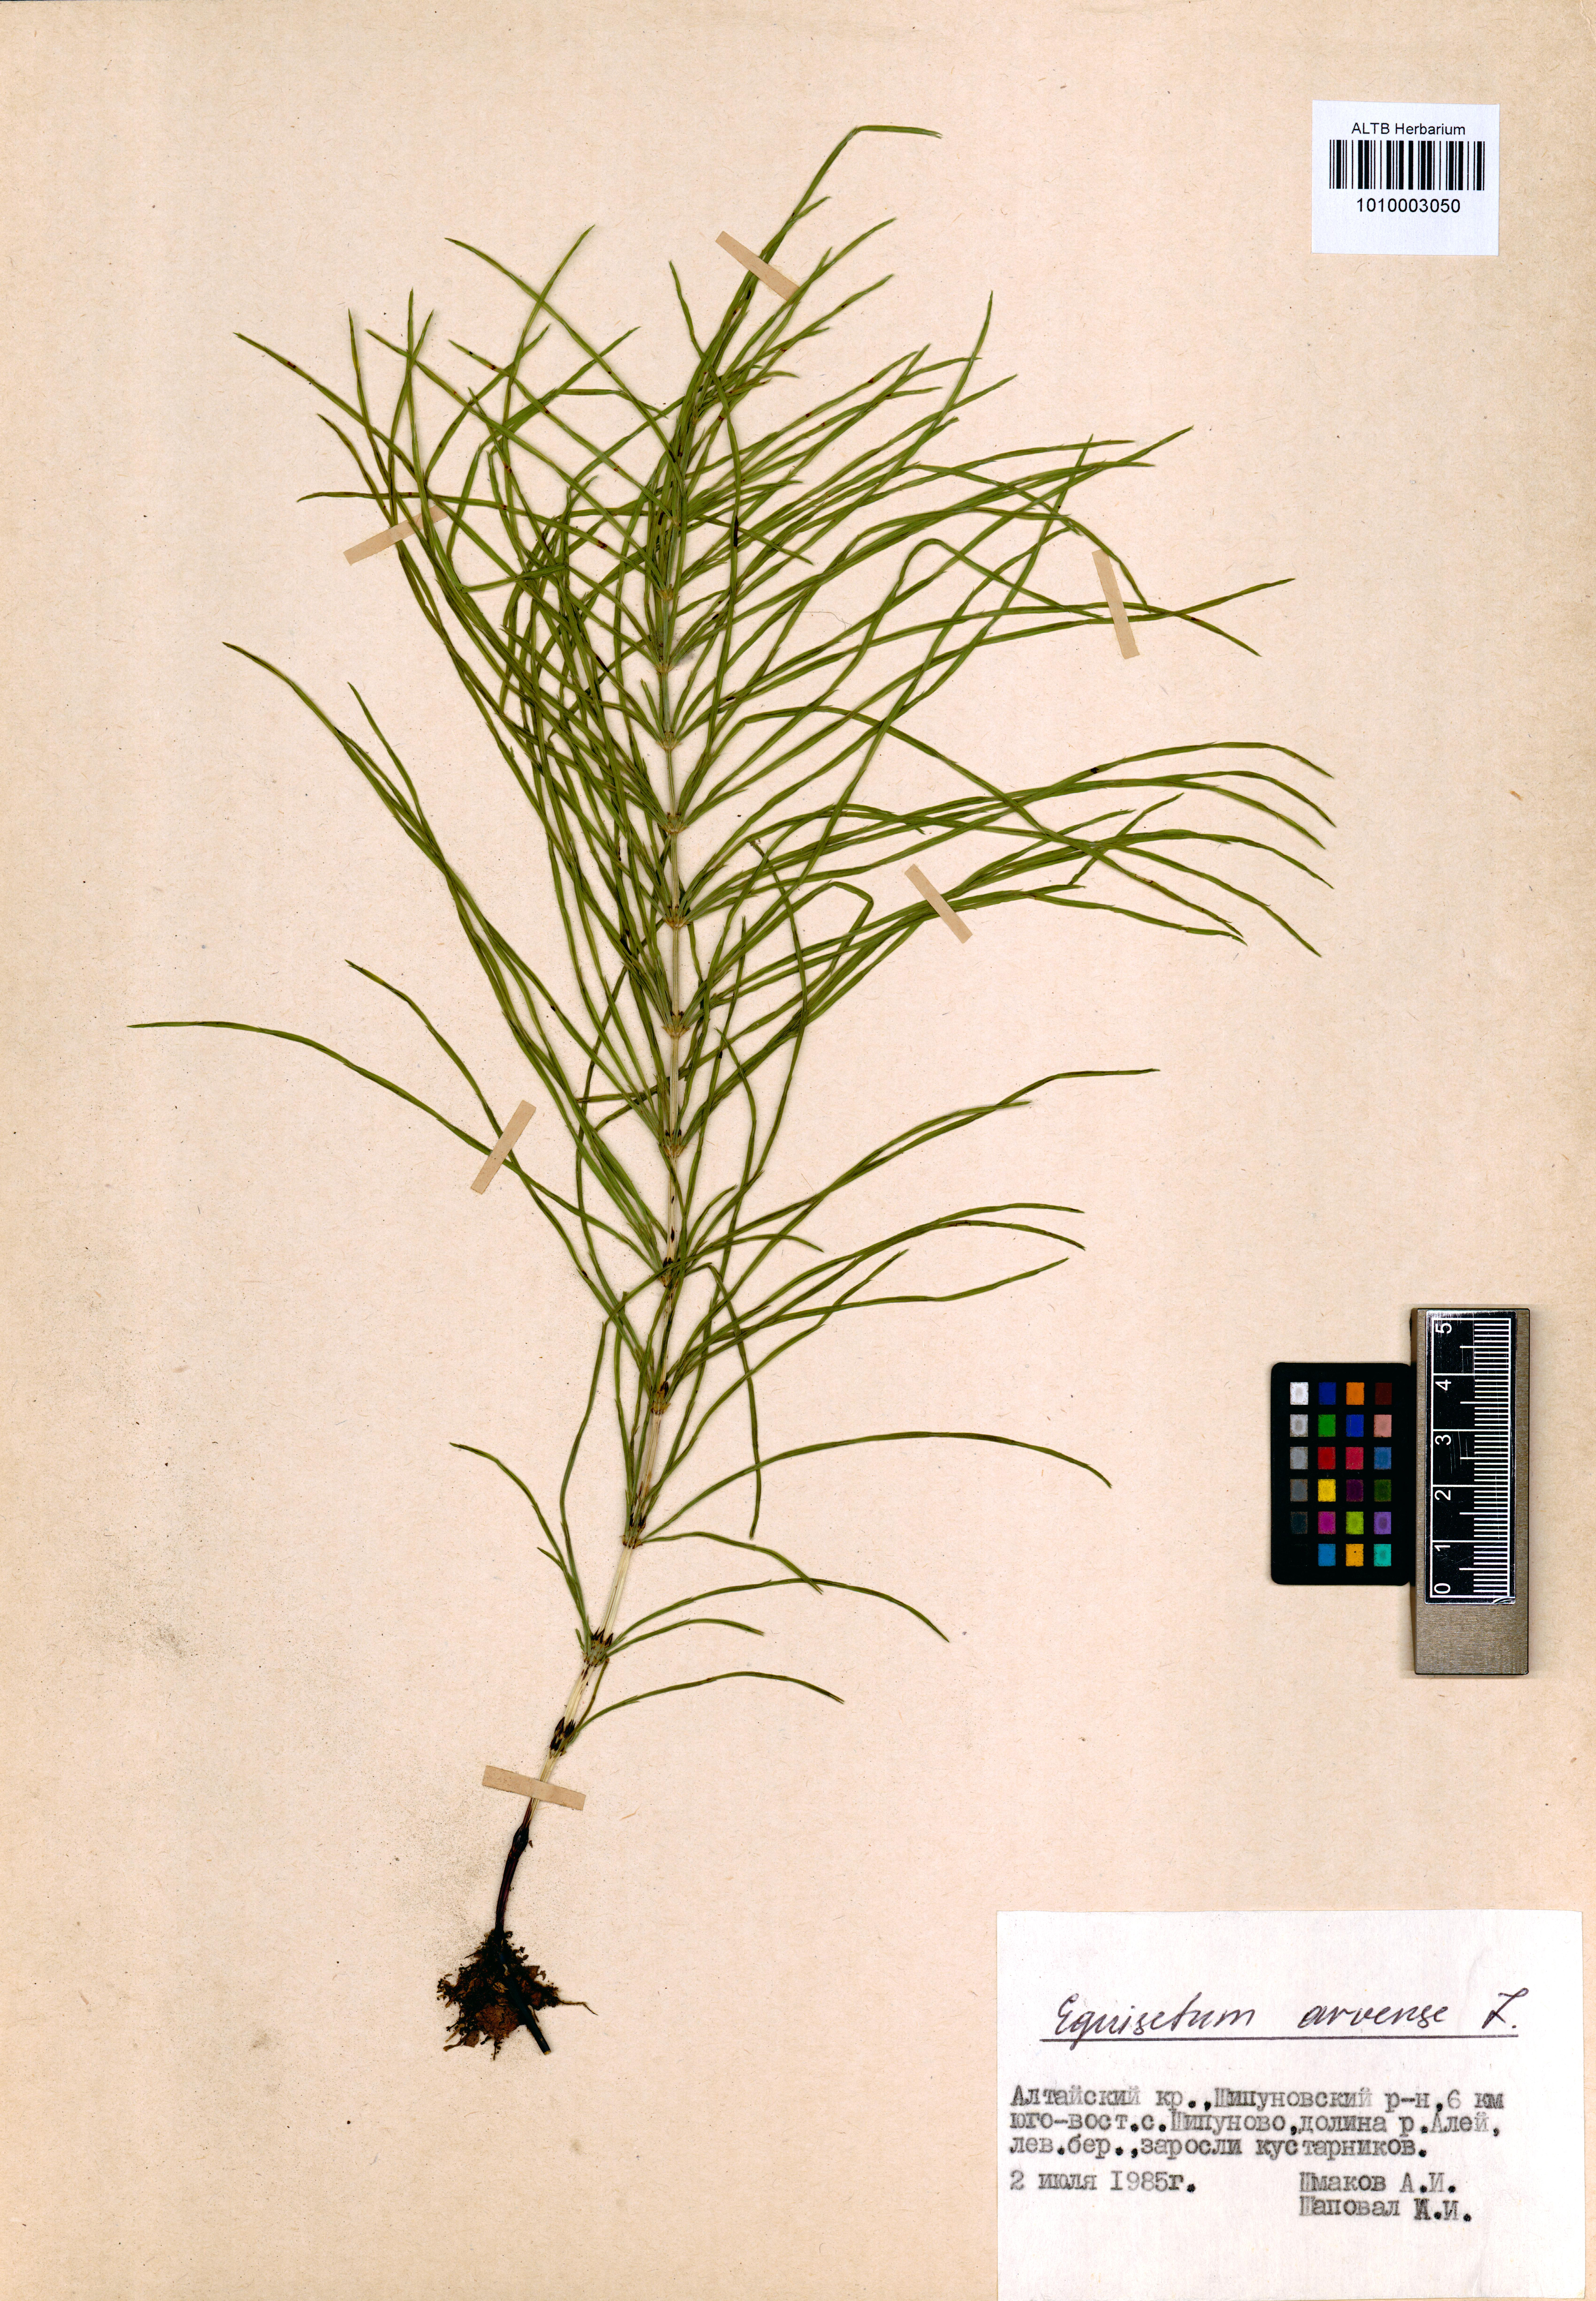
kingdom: Plantae
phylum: Tracheophyta
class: Polypodiopsida
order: Equisetales
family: Equisetaceae
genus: Equisetum
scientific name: Equisetum arvense
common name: Field horsetail
